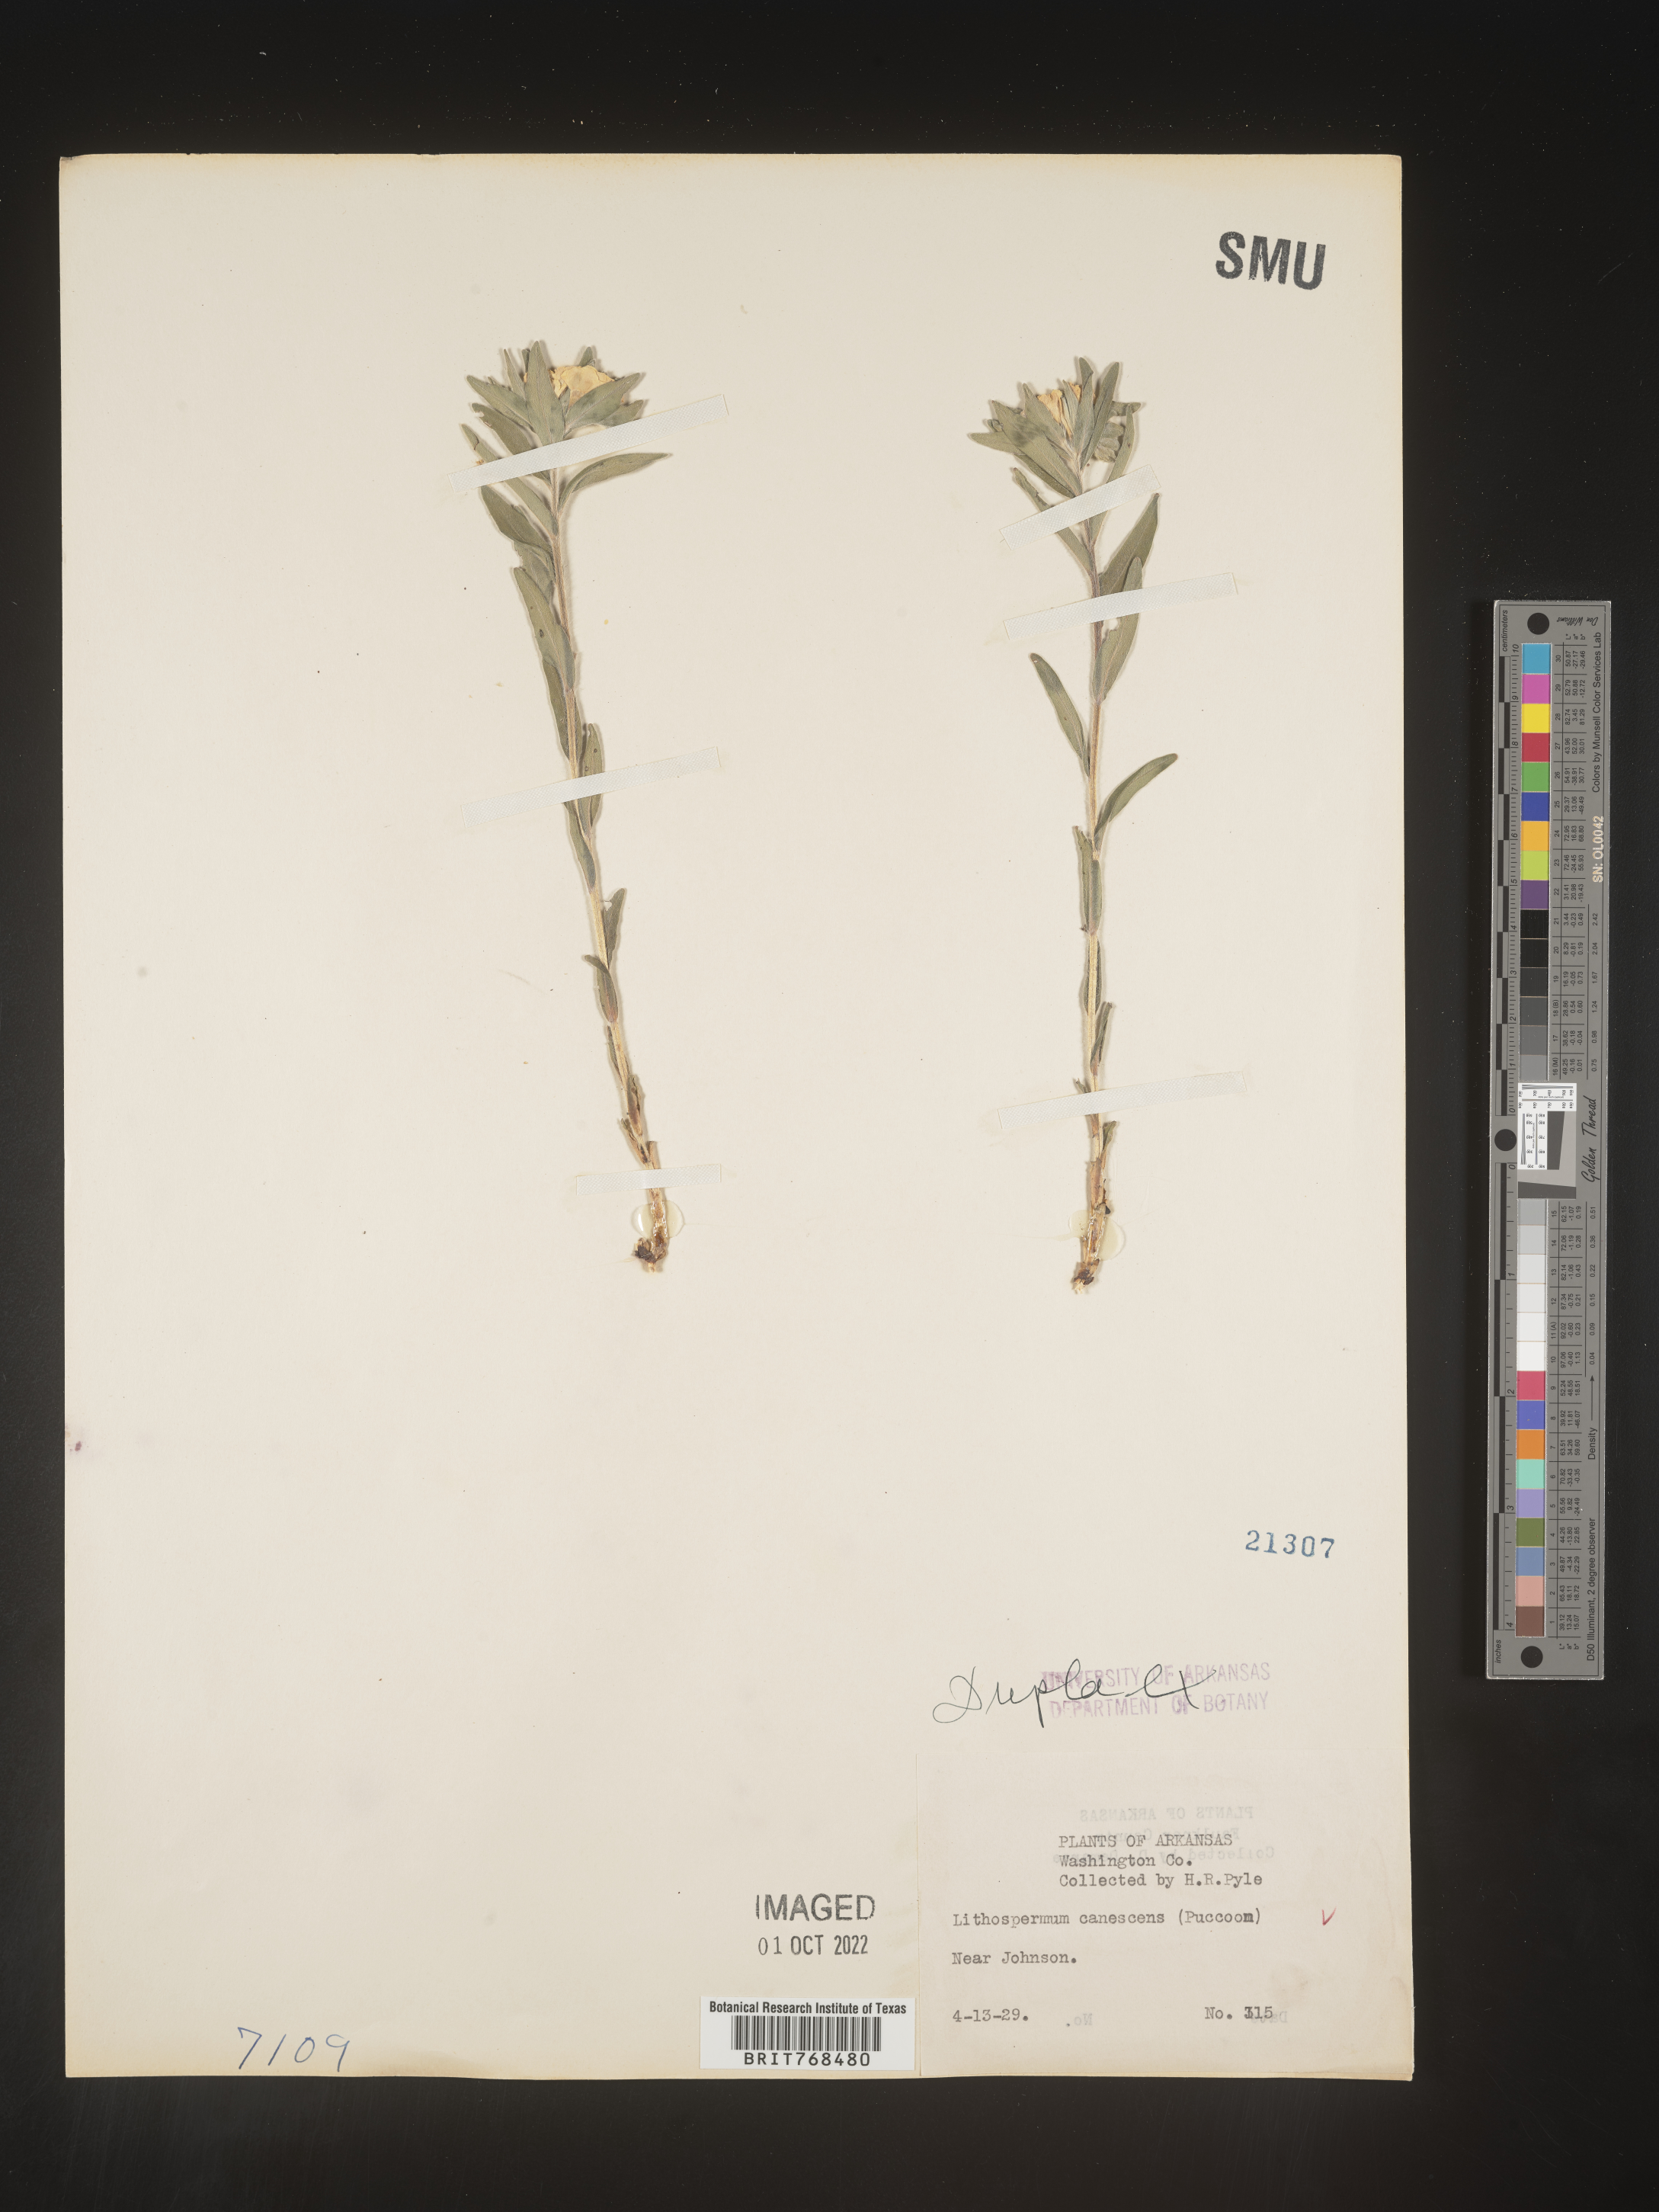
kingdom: Plantae
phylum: Tracheophyta
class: Magnoliopsida
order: Boraginales
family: Boraginaceae
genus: Lithospermum
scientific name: Lithospermum canescens
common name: Hoary puccoon
